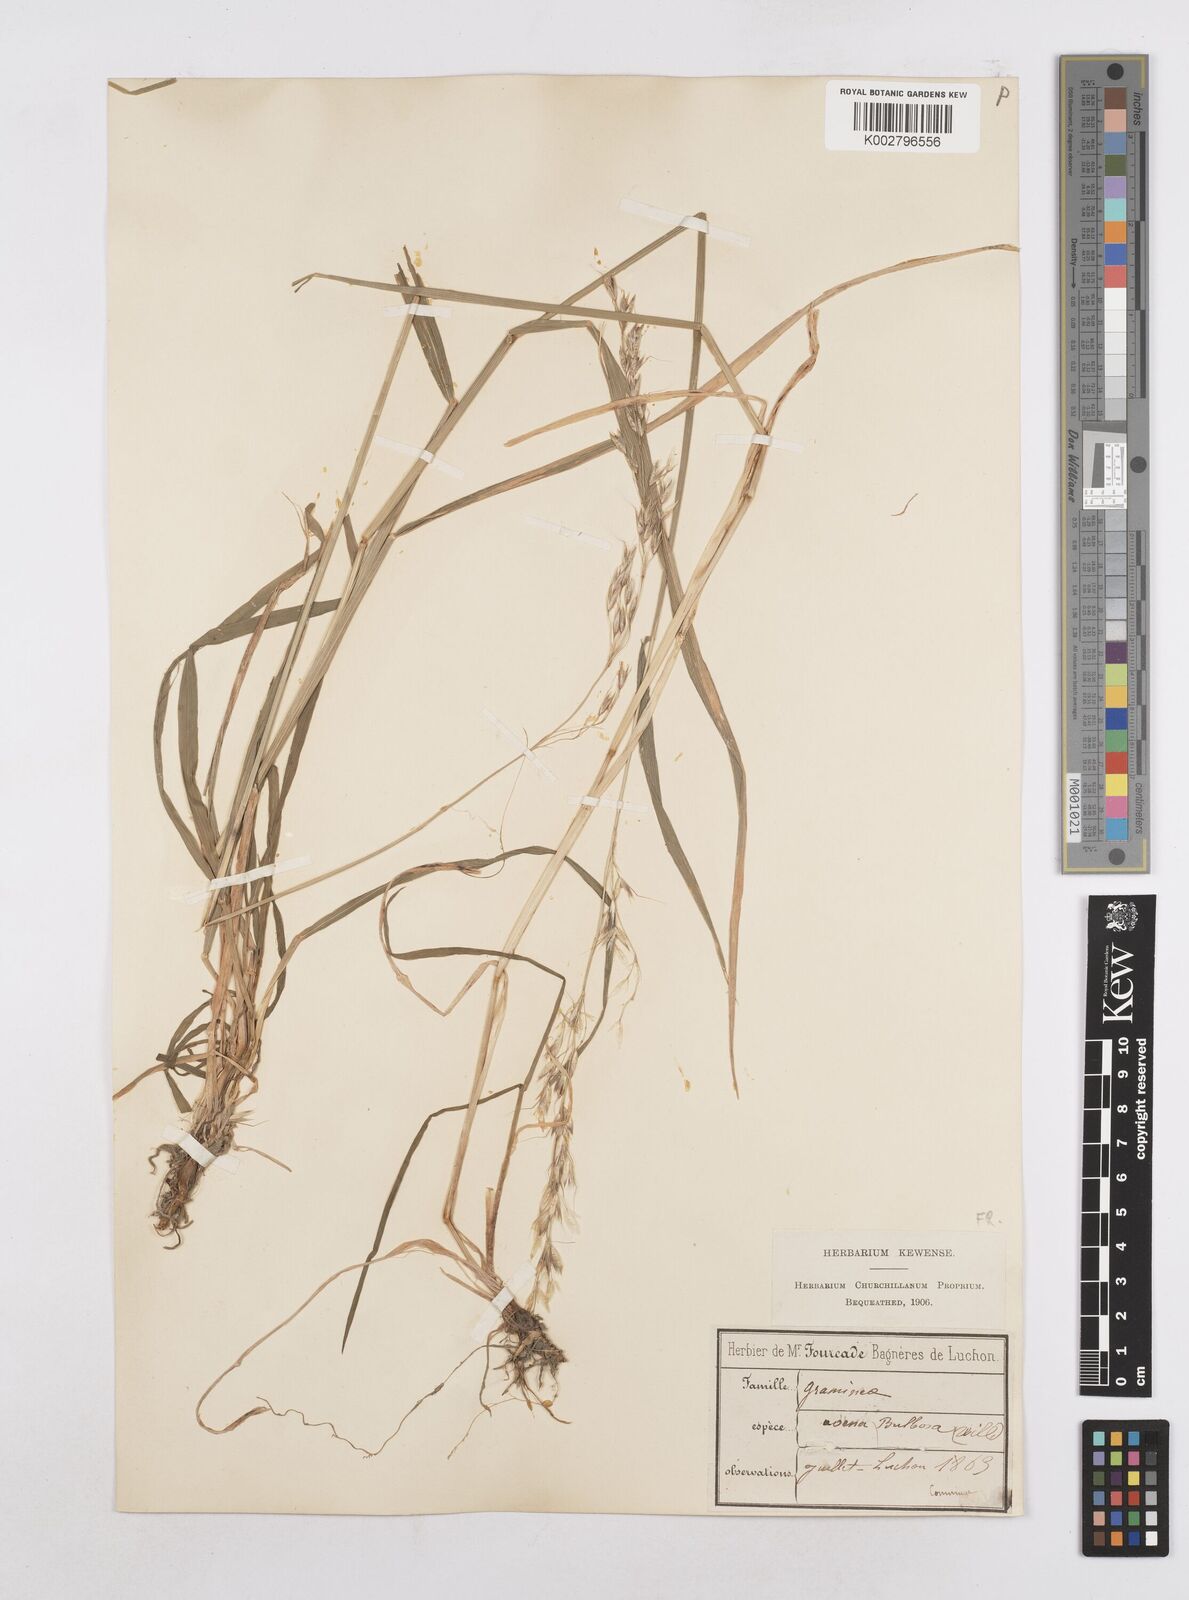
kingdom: Plantae
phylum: Tracheophyta
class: Liliopsida
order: Poales
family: Poaceae
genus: Arrhenatherum
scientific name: Arrhenatherum elatius
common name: Tall oatgrass
